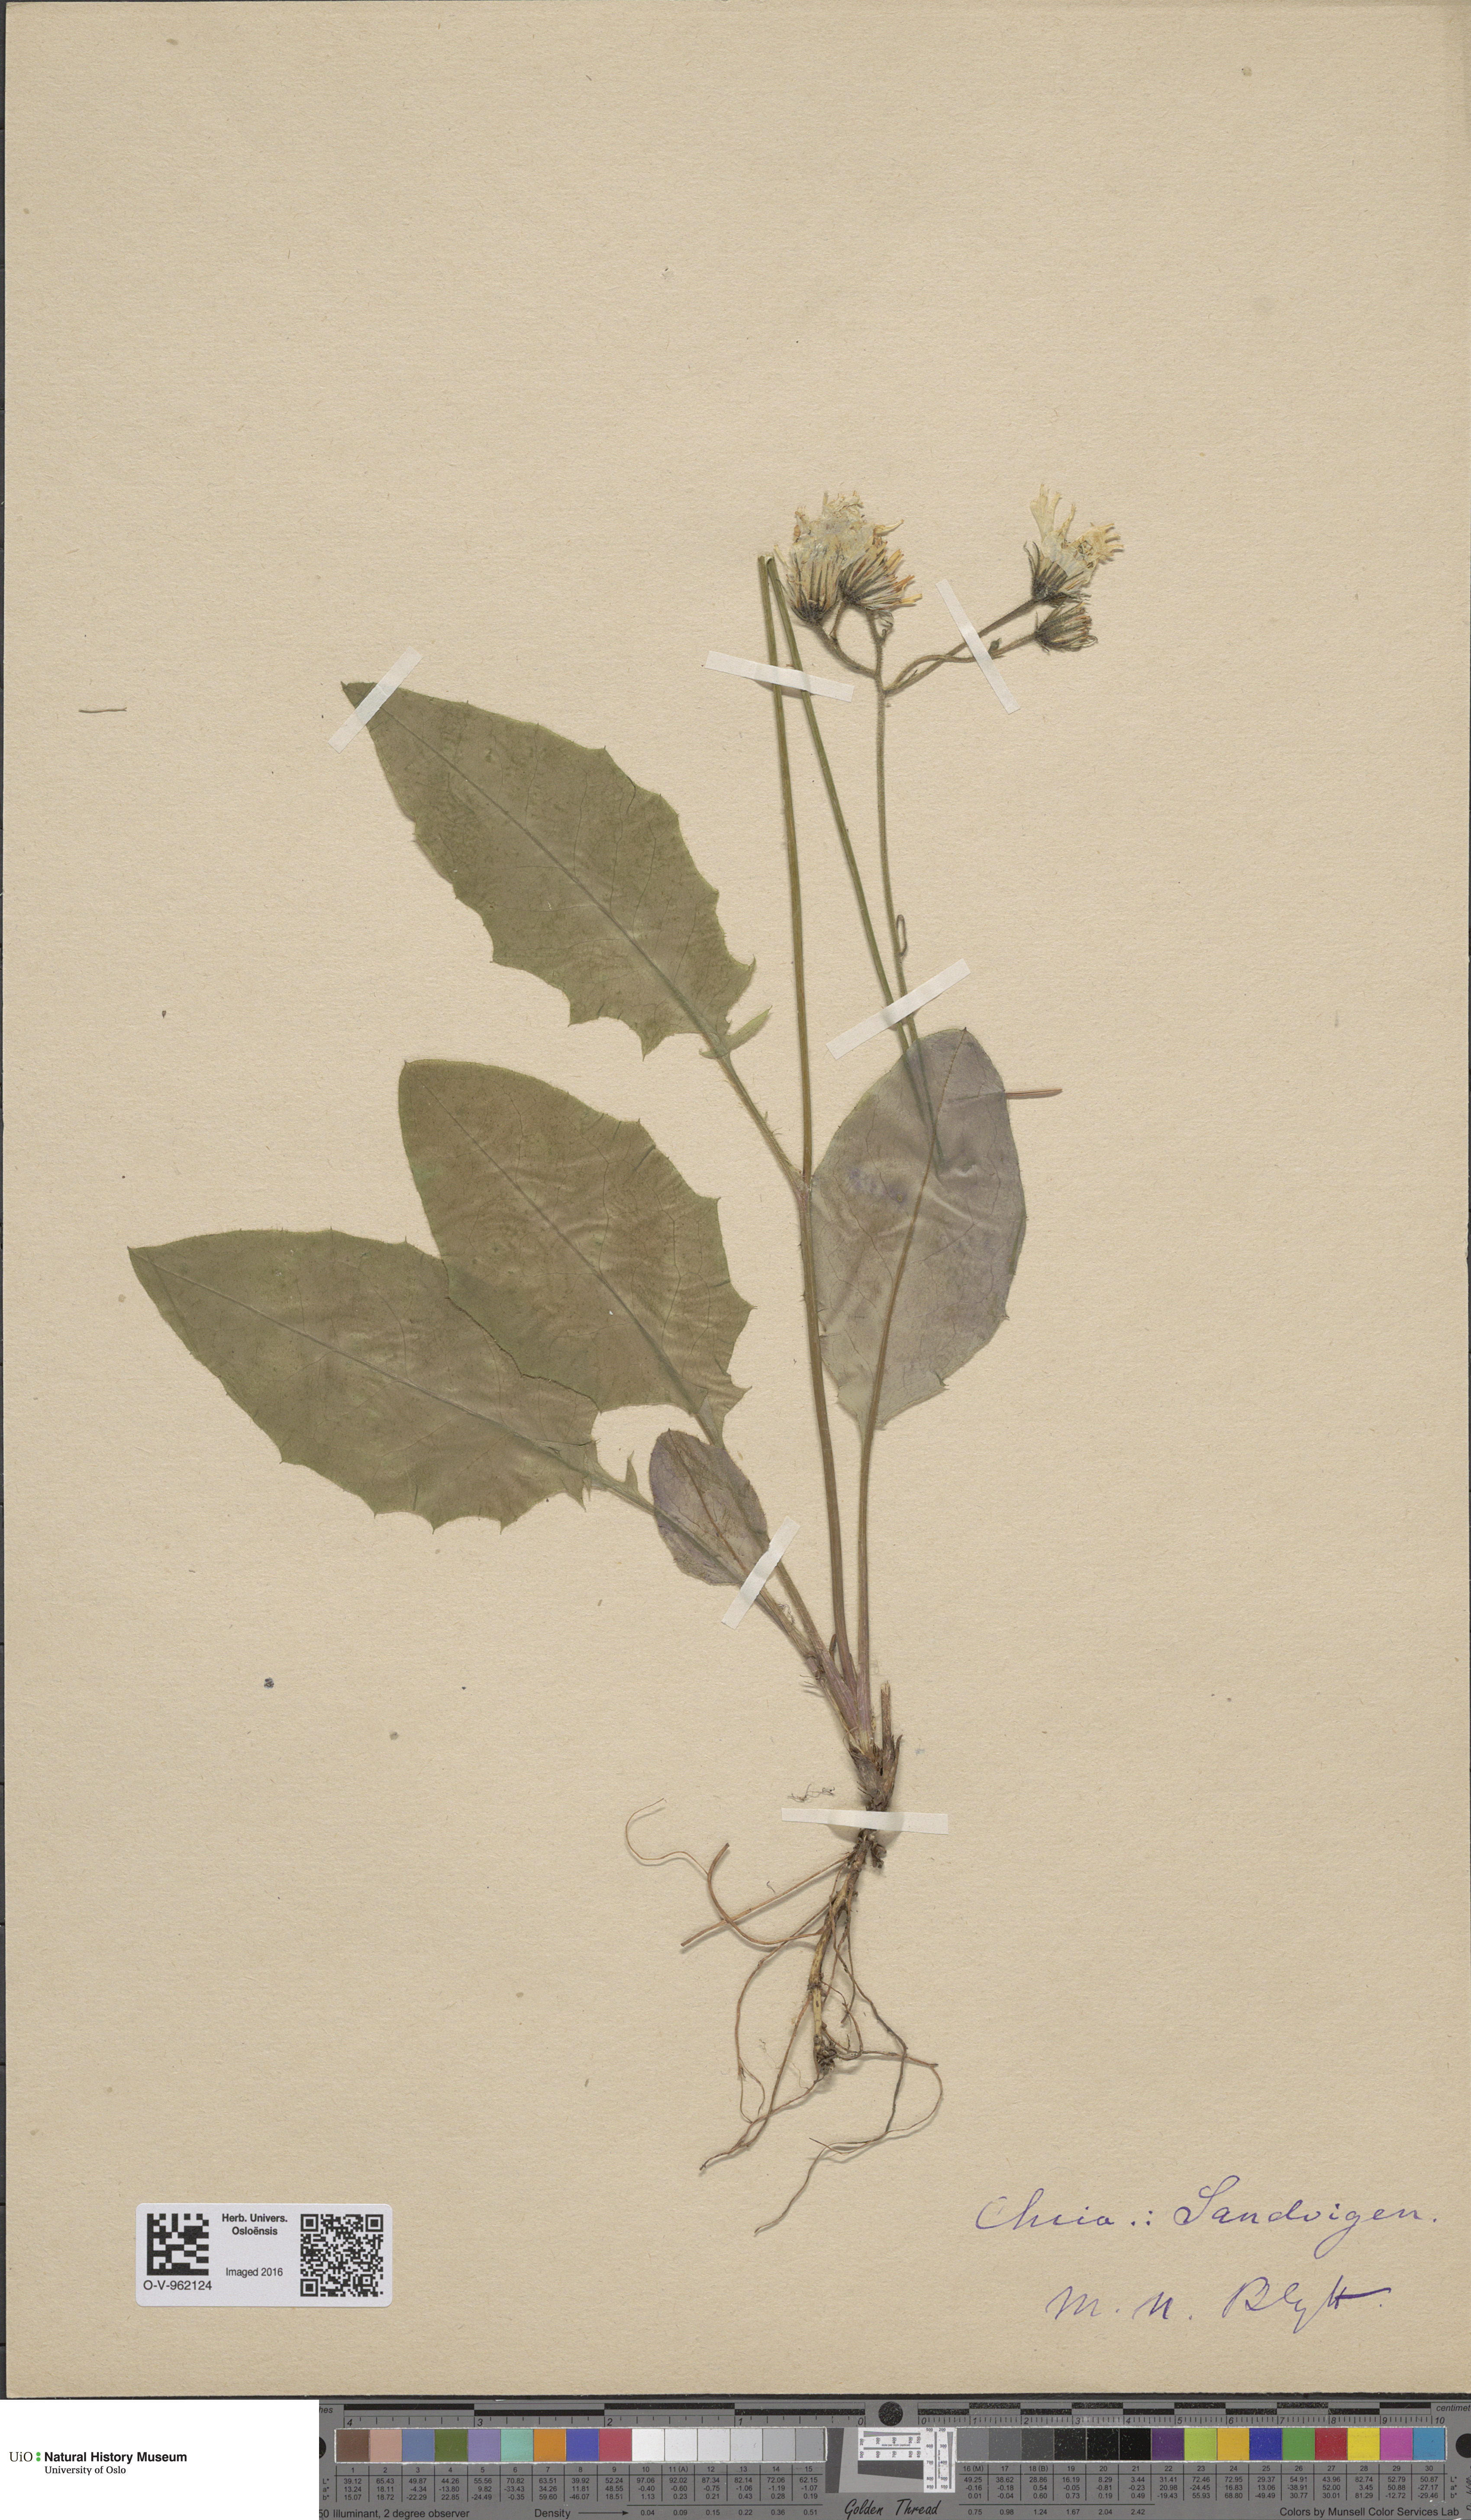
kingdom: Plantae
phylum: Tracheophyta
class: Magnoliopsida
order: Asterales
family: Asteraceae
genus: Hieracium
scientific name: Hieracium
